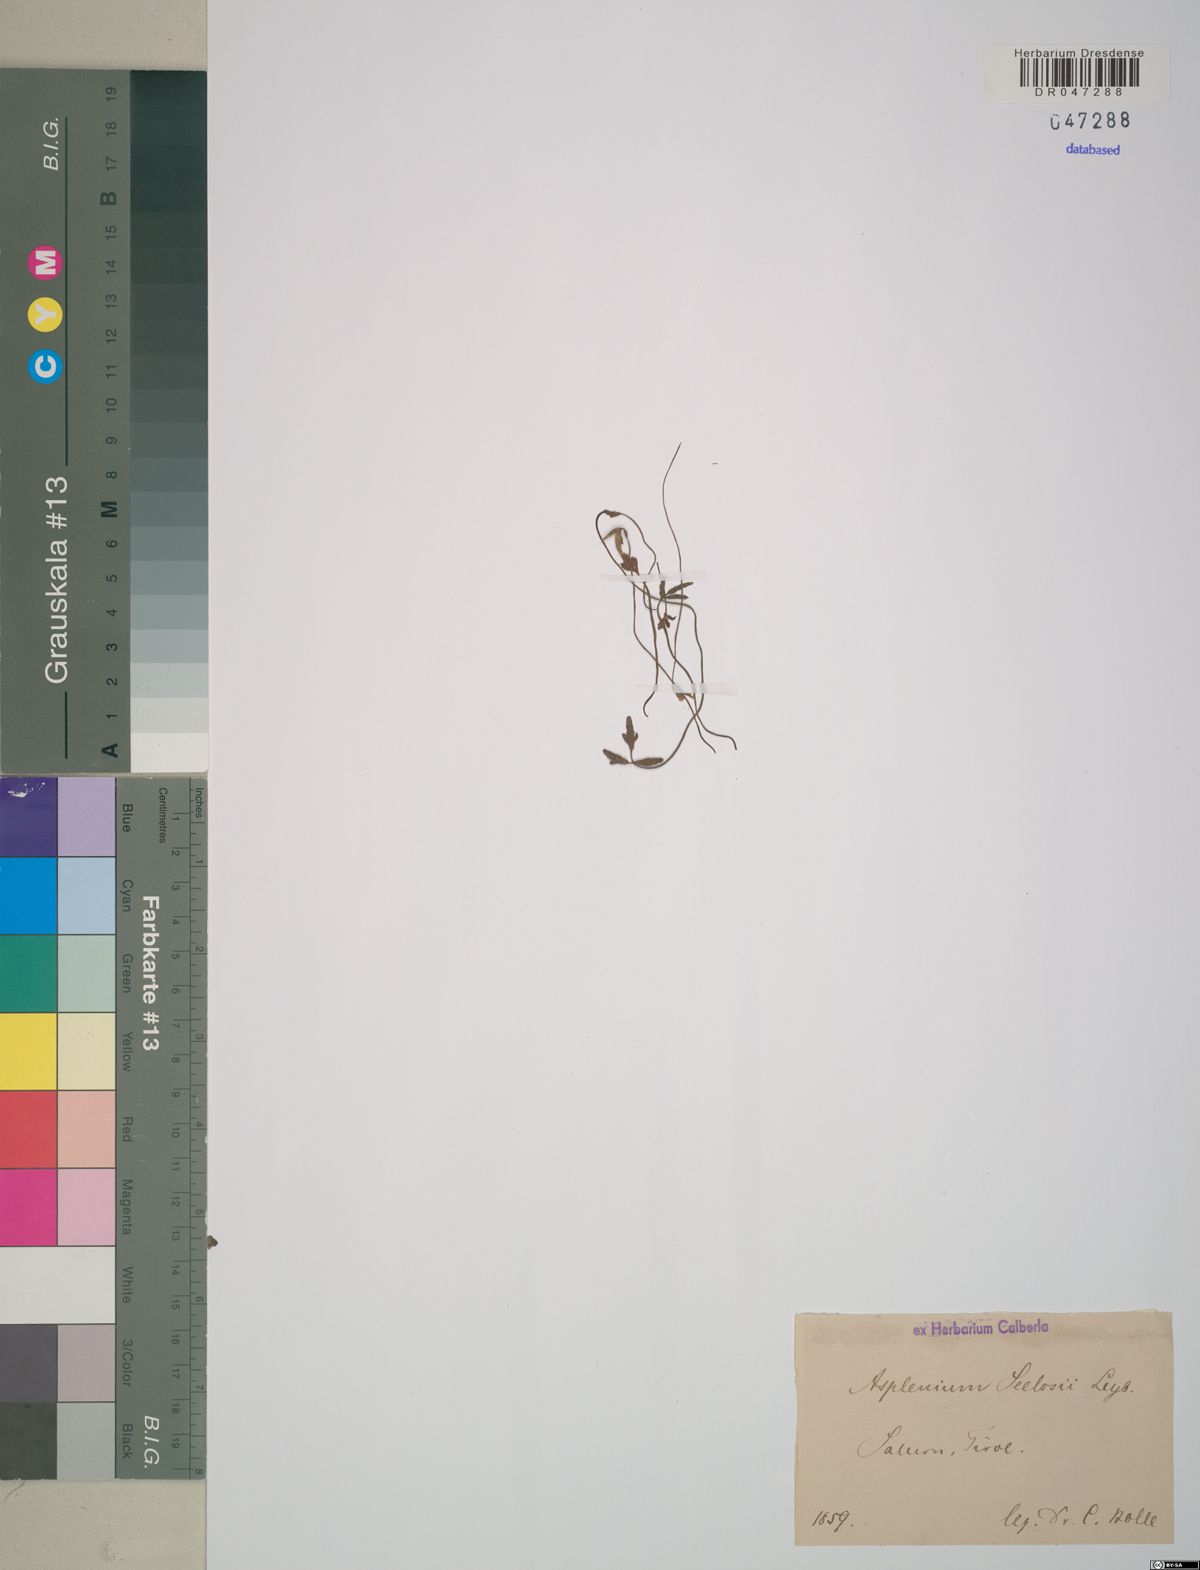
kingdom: Plantae
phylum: Tracheophyta
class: Polypodiopsida
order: Polypodiales
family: Aspleniaceae
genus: Asplenium
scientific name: Asplenium seelosii
